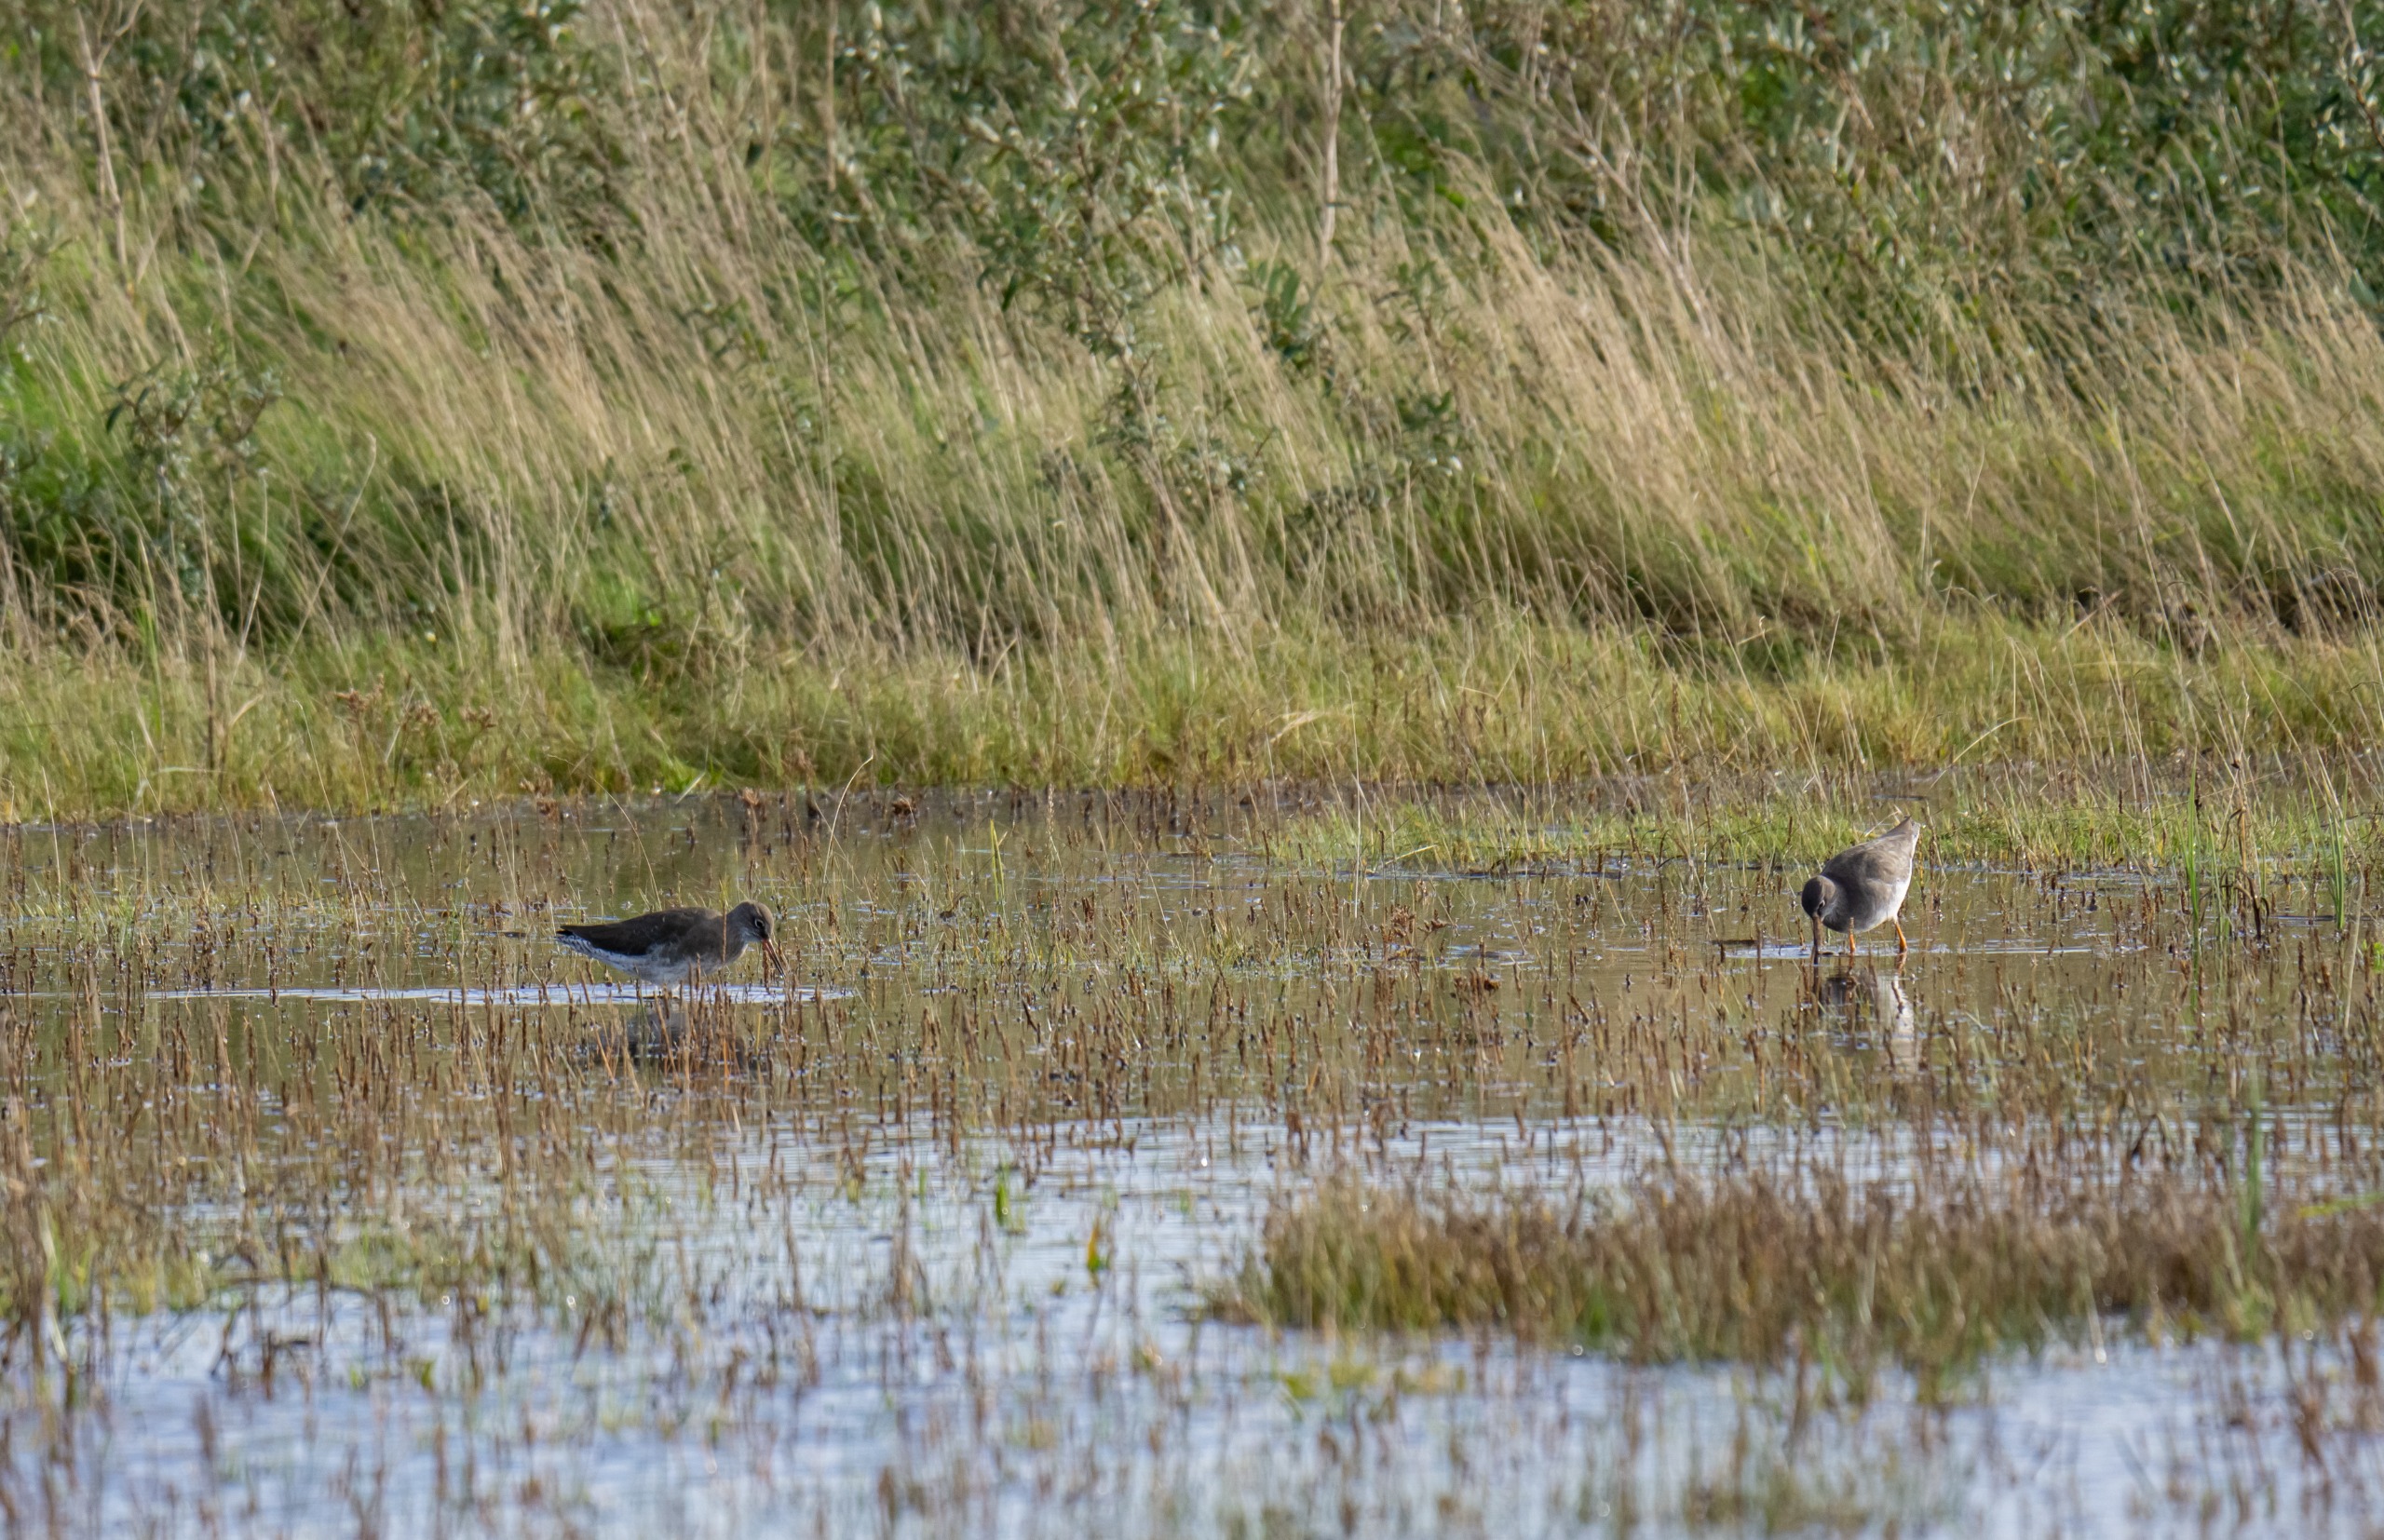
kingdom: Animalia
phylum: Chordata
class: Aves
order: Charadriiformes
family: Scolopacidae
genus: Tringa
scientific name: Tringa totanus
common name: Rødben
